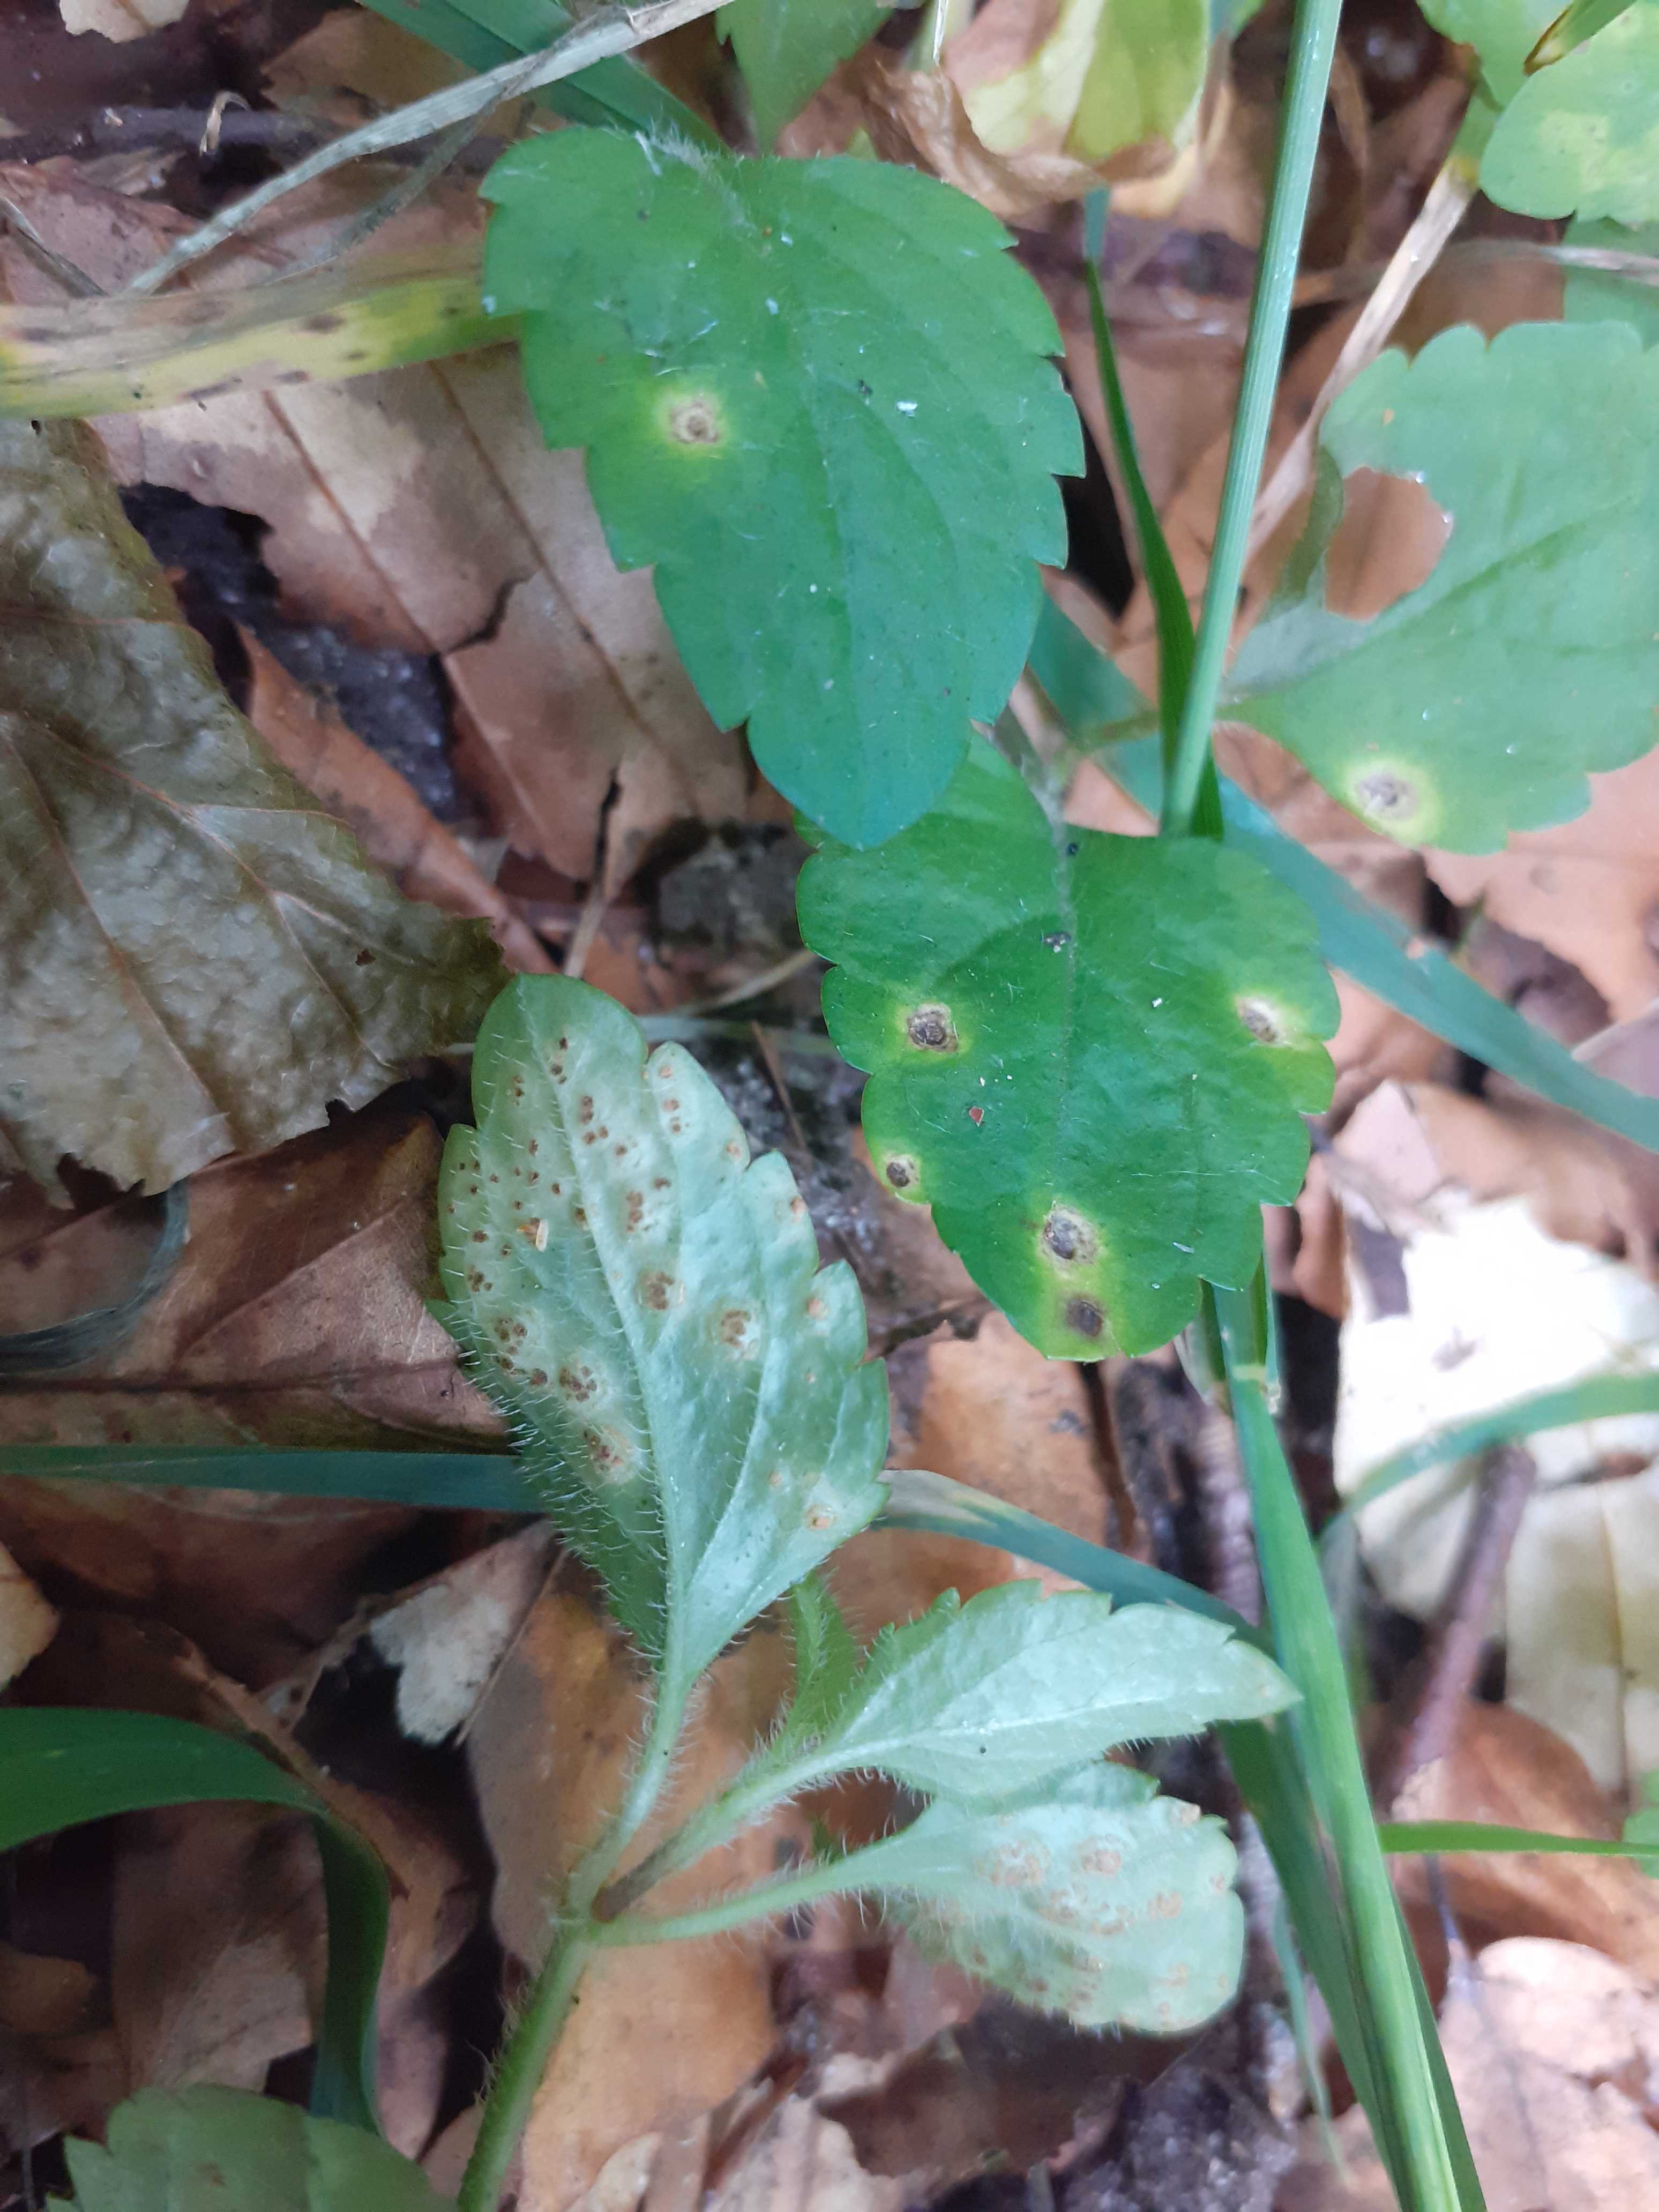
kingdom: Fungi
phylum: Basidiomycota
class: Pucciniomycetes
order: Pucciniales
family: Pucciniaceae
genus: Puccinia
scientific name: Puccinia veronicae
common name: Wood speedwell rust
